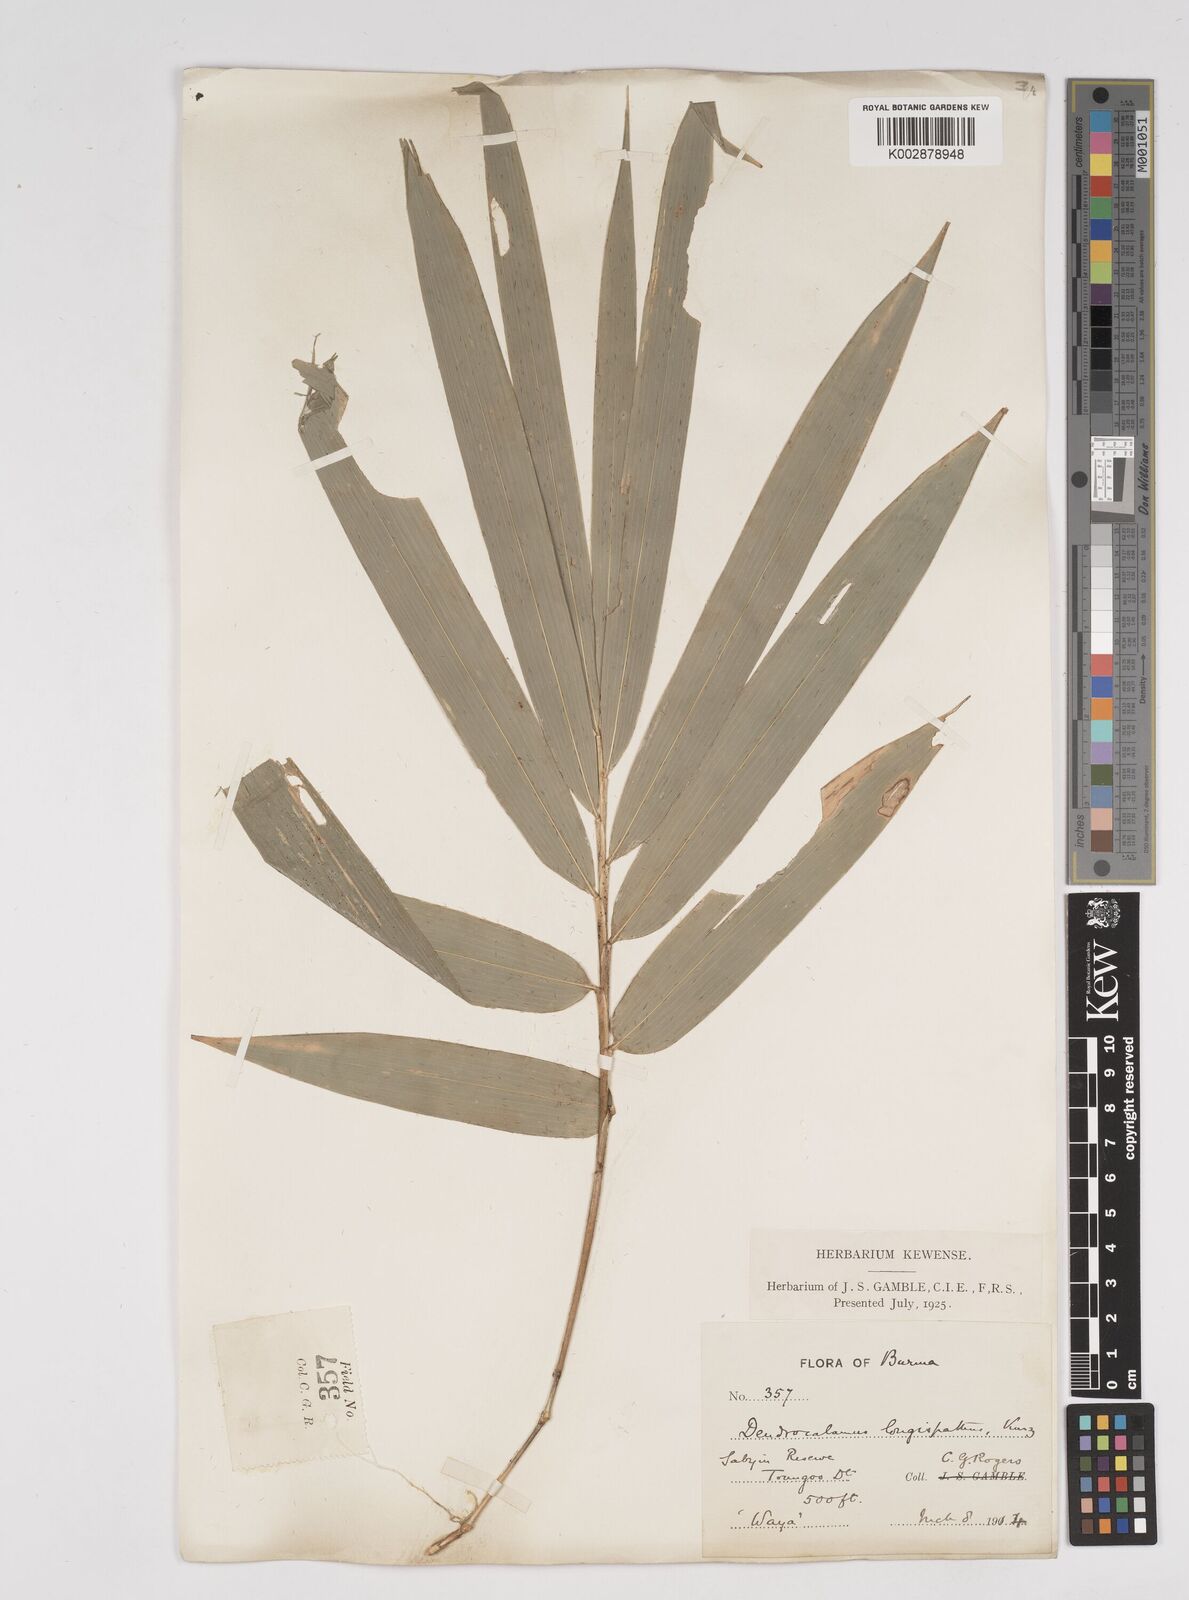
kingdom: Plantae
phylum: Tracheophyta
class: Liliopsida
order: Poales
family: Poaceae
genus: Dendrocalamus
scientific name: Dendrocalamus longispathus
